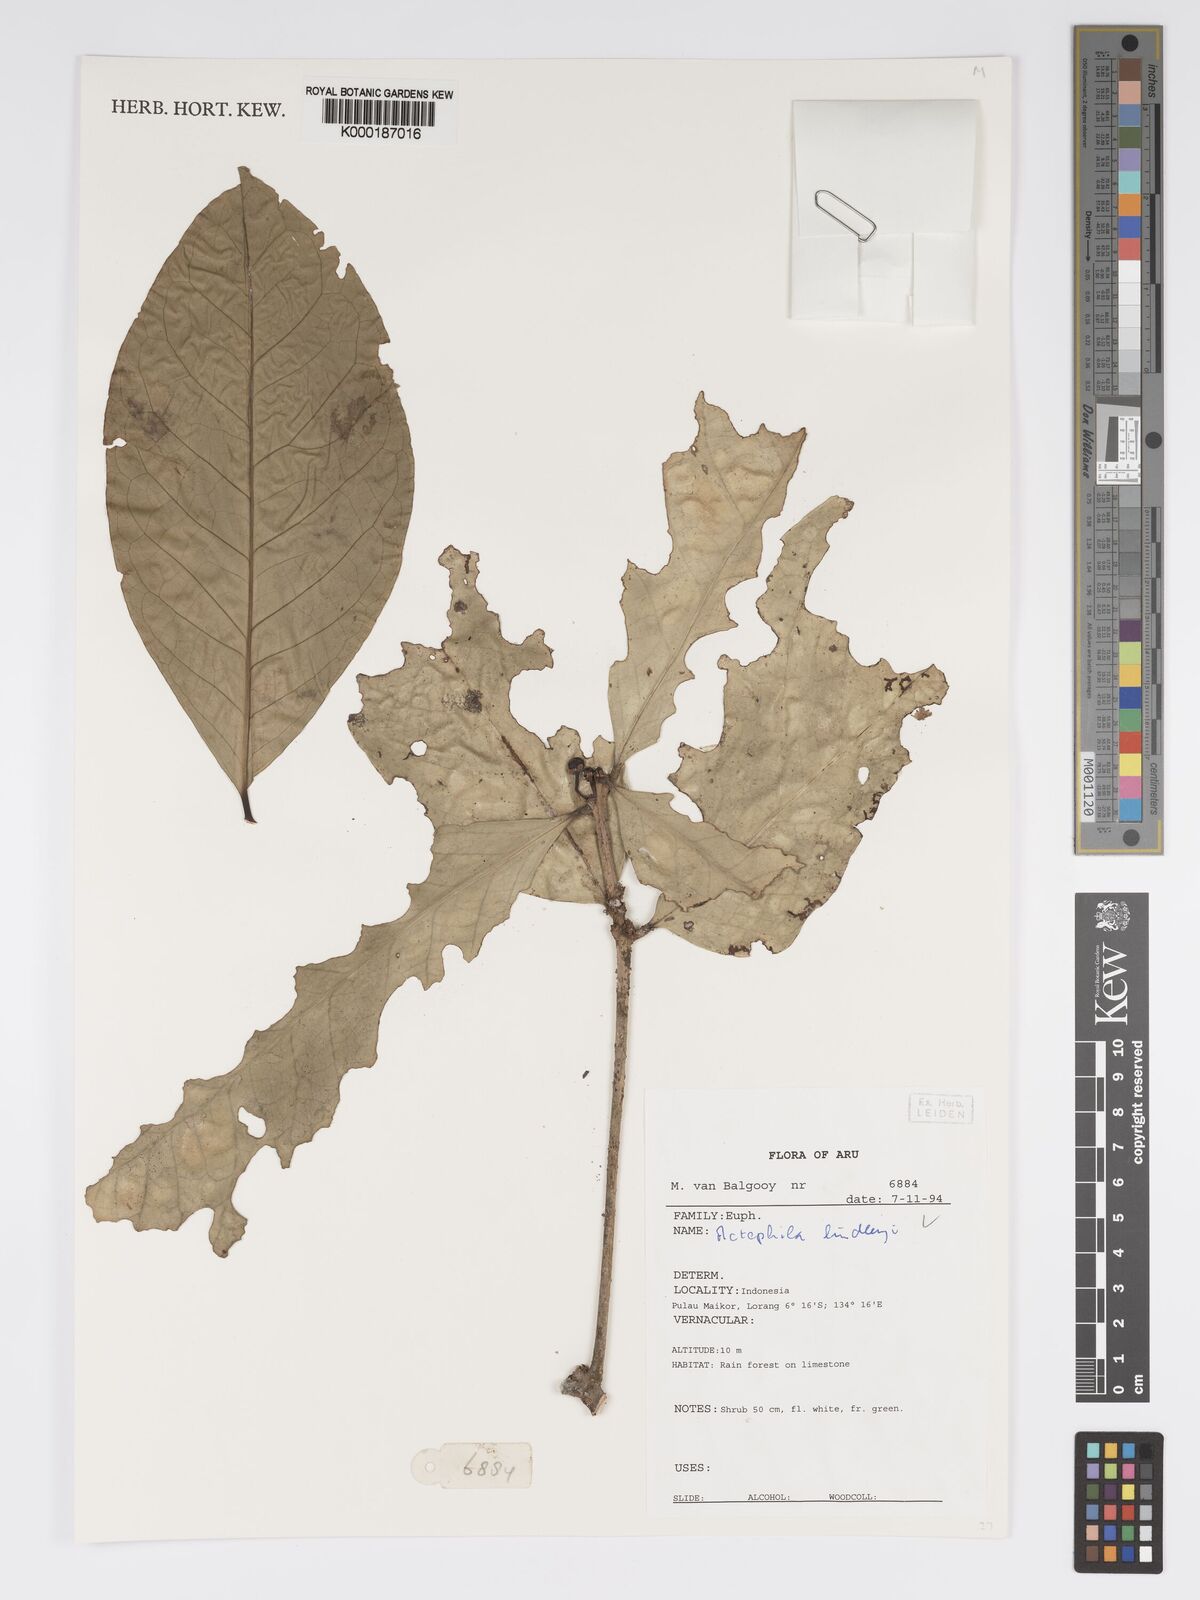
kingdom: Plantae
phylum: Tracheophyta
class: Magnoliopsida
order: Malpighiales
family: Phyllanthaceae
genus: Actephila
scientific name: Actephila lindleyi
